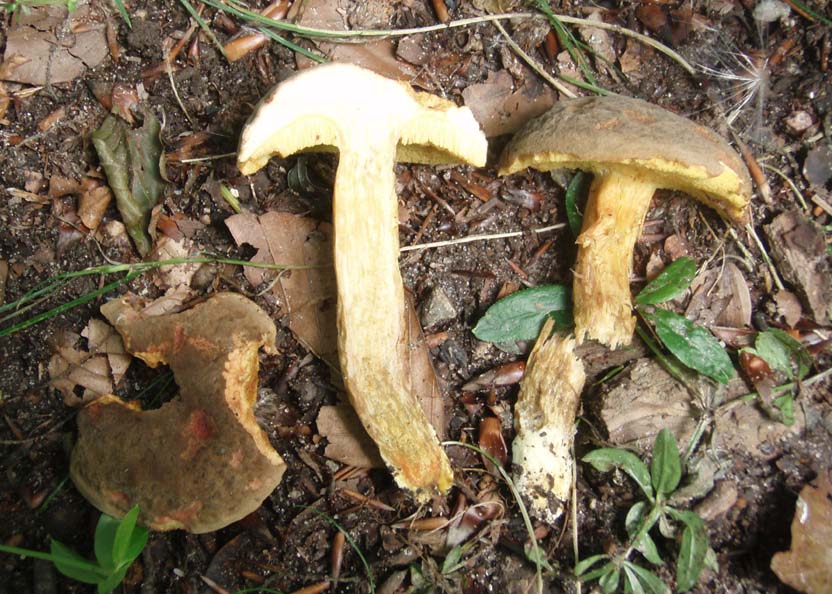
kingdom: Fungi
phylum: Basidiomycota
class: Agaricomycetes
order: Boletales
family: Boletaceae
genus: Xerocomellus
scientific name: Xerocomellus chrysenteron
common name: rødsprukken rørhat
